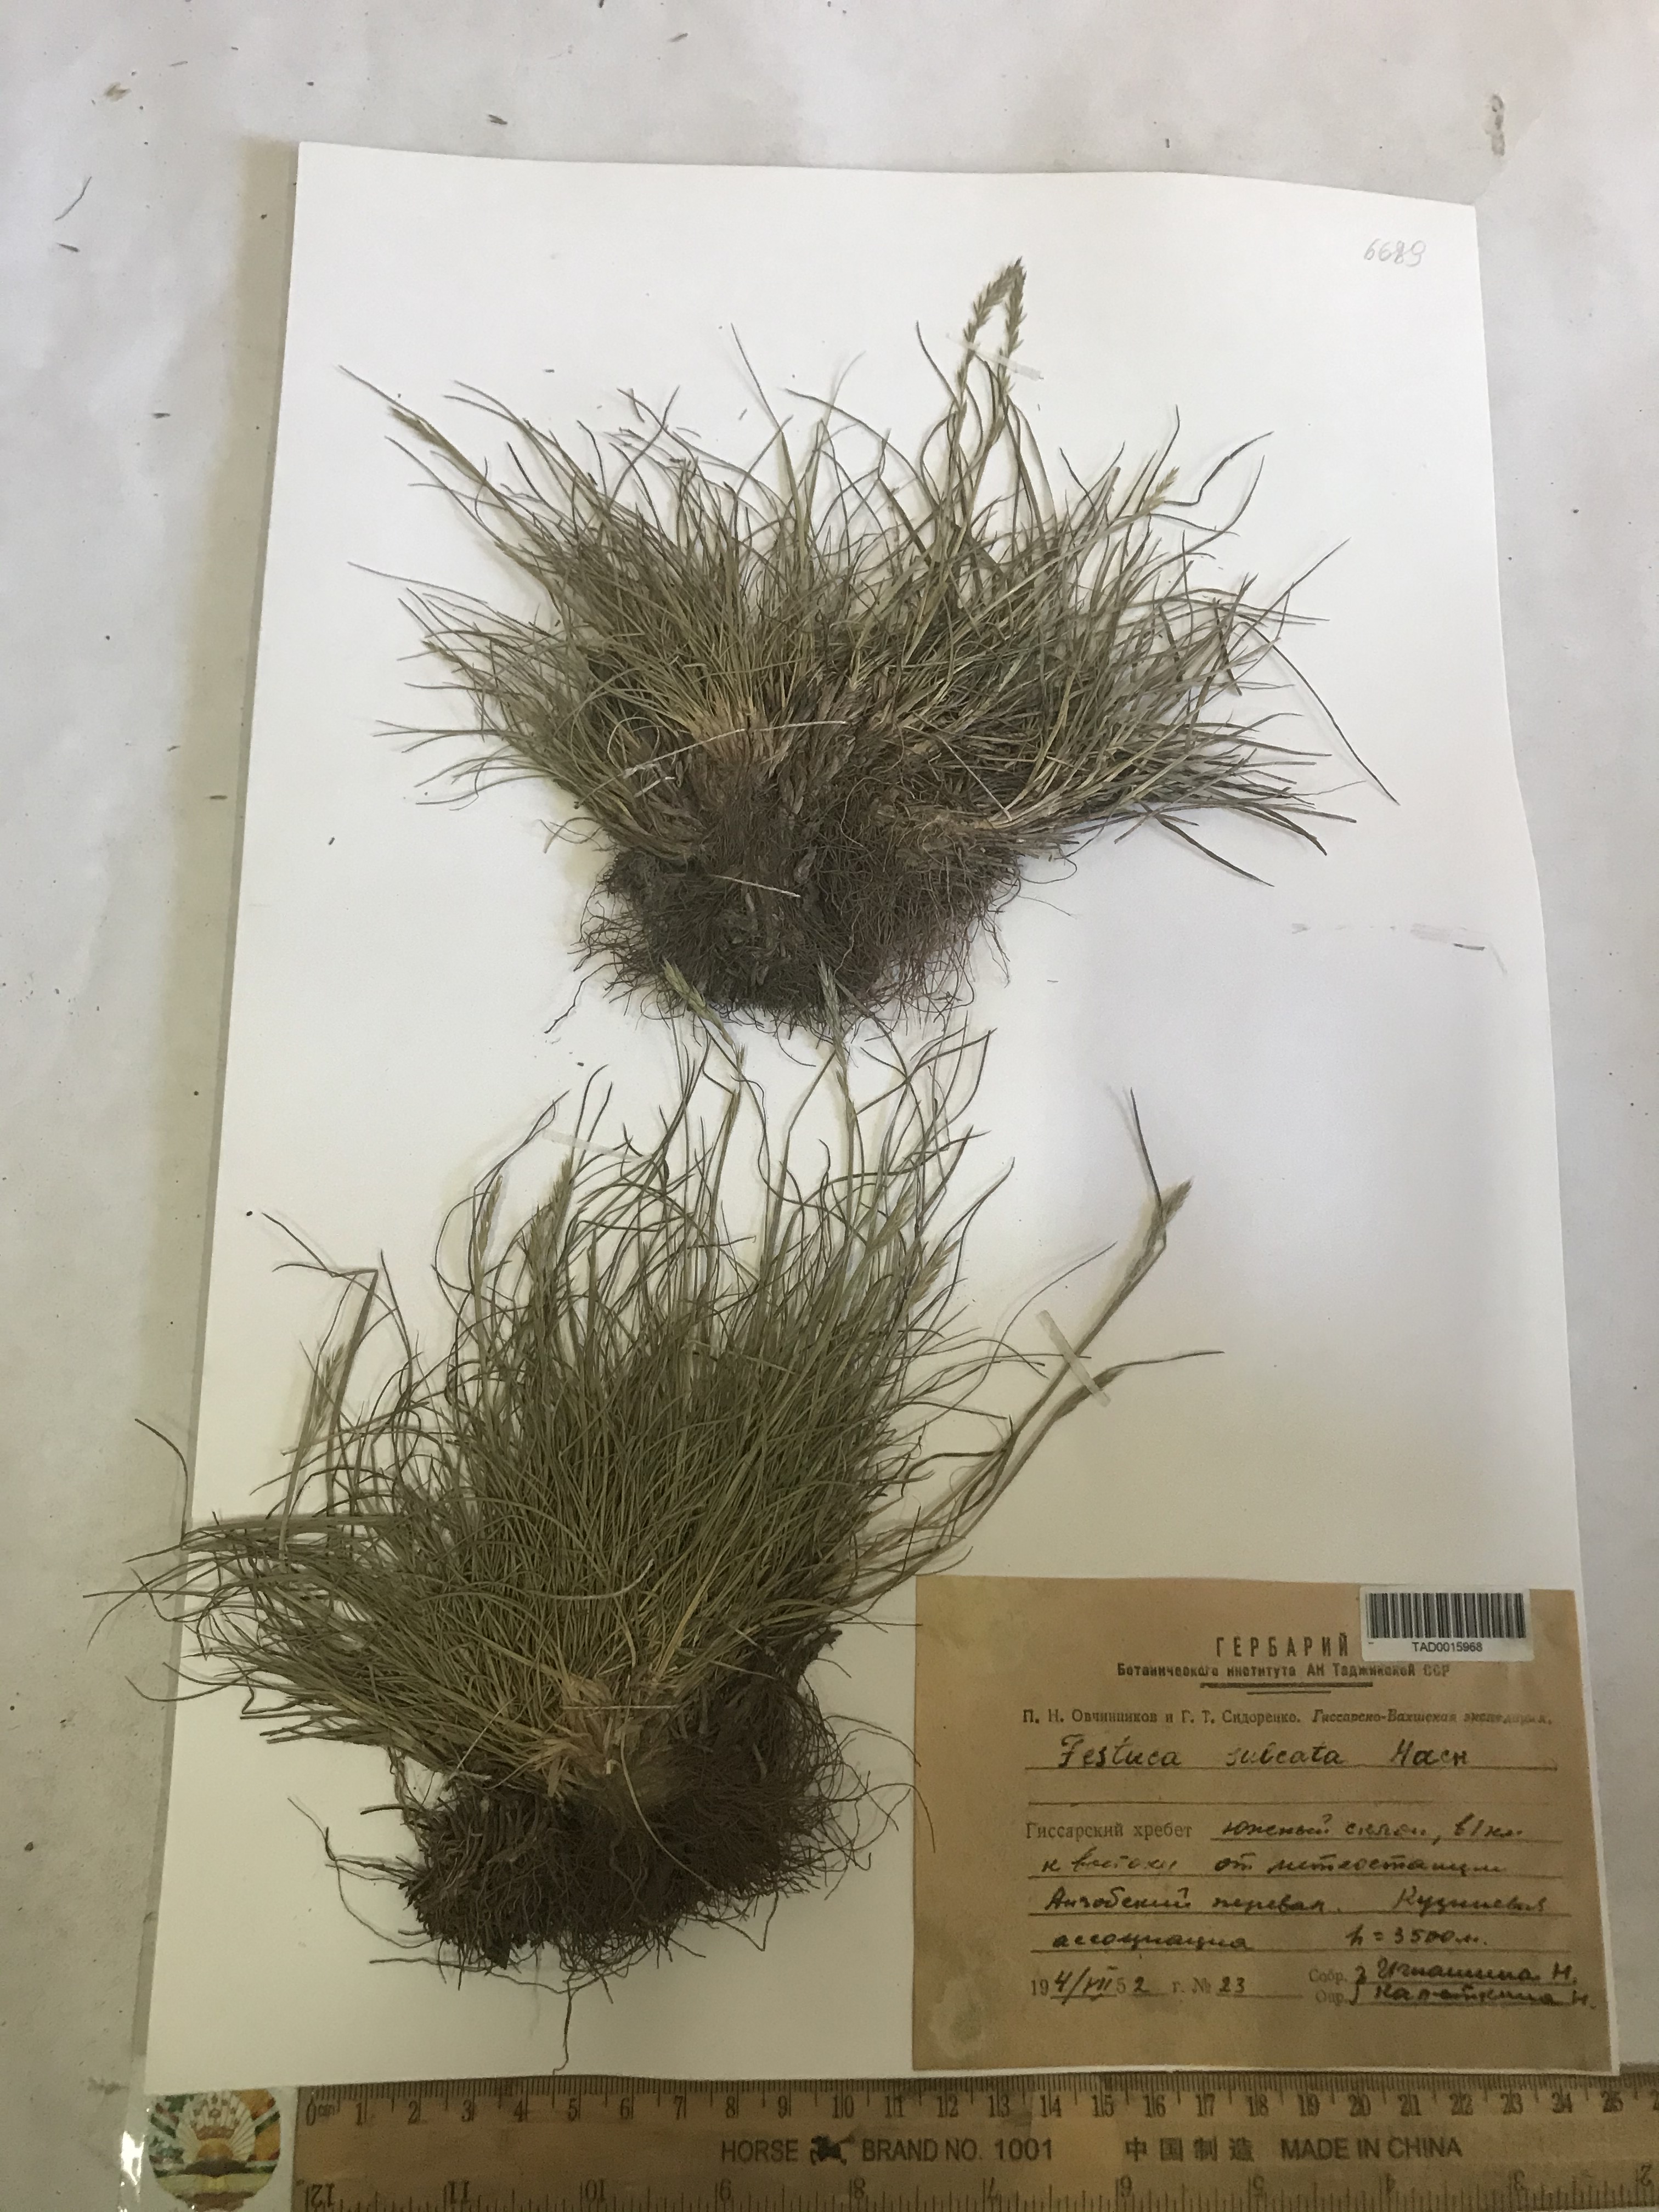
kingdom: Plantae
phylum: Tracheophyta
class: Liliopsida
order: Poales
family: Poaceae
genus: Festuca
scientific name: Festuca sulcata
